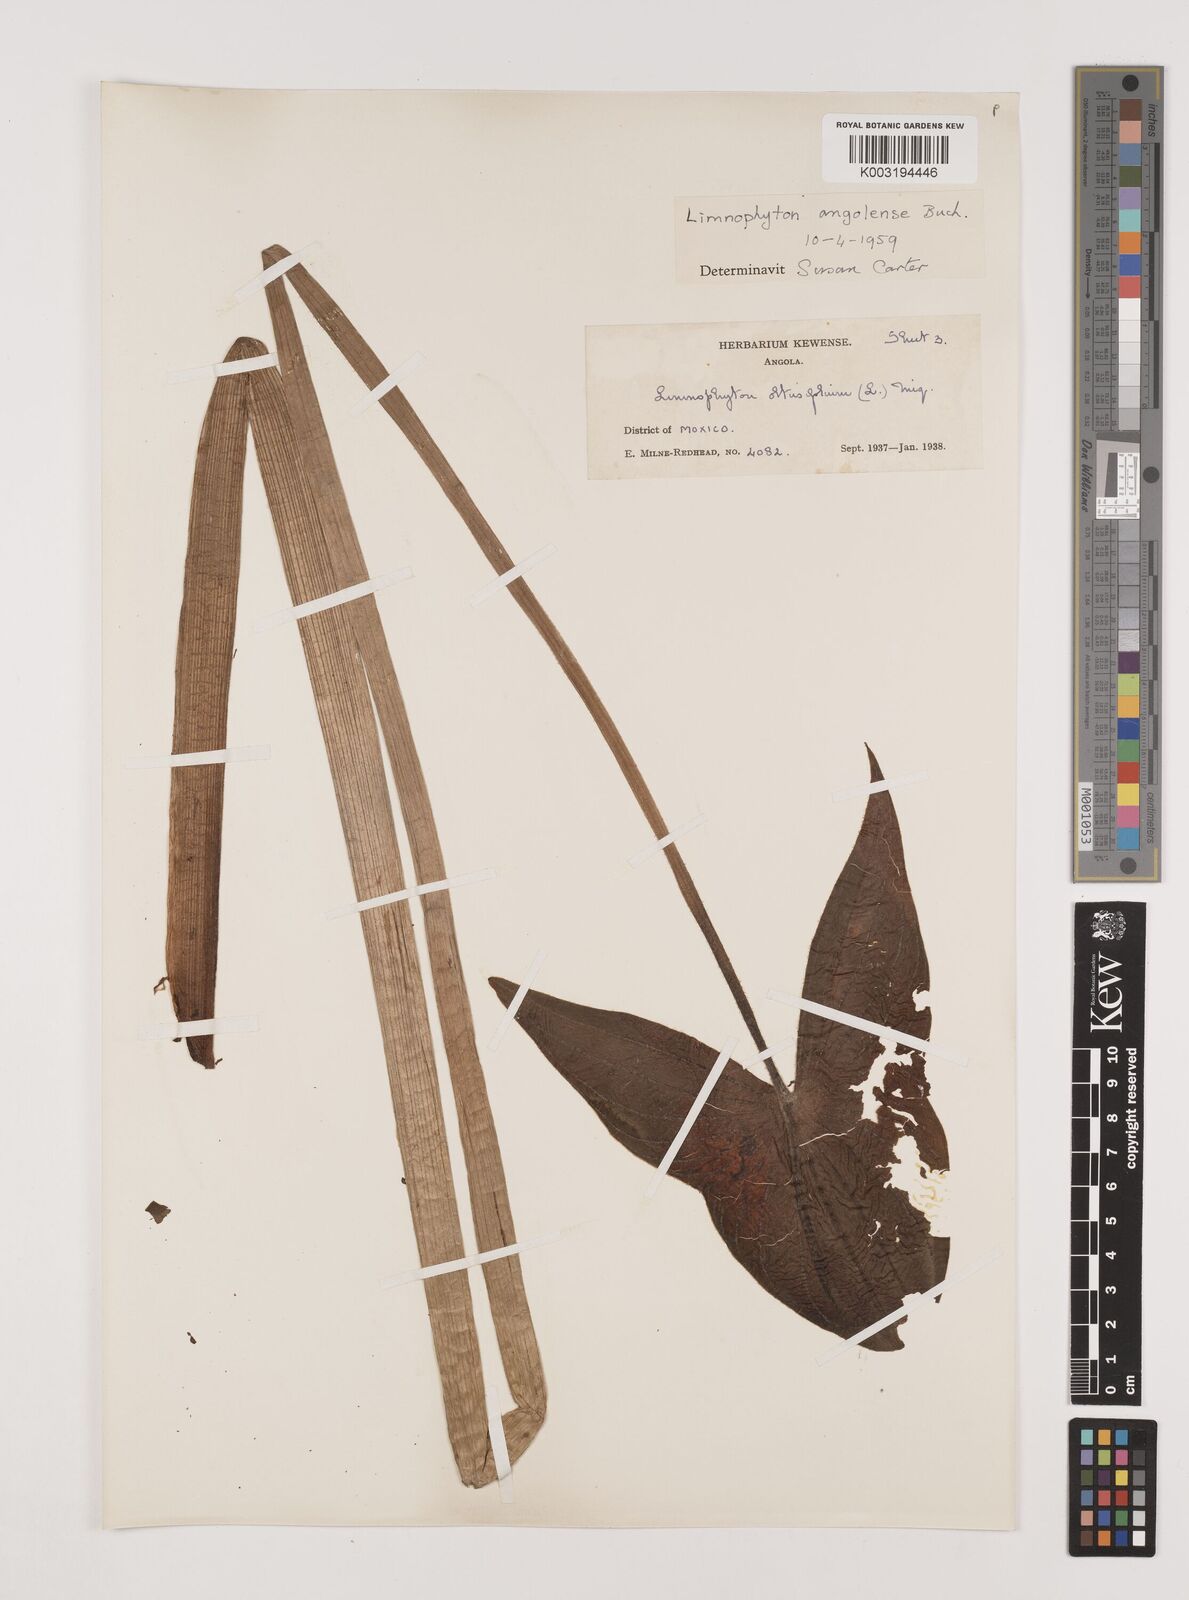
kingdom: Plantae
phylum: Tracheophyta
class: Liliopsida
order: Alismatales
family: Alismataceae
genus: Limnophyton
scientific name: Limnophyton angolense
